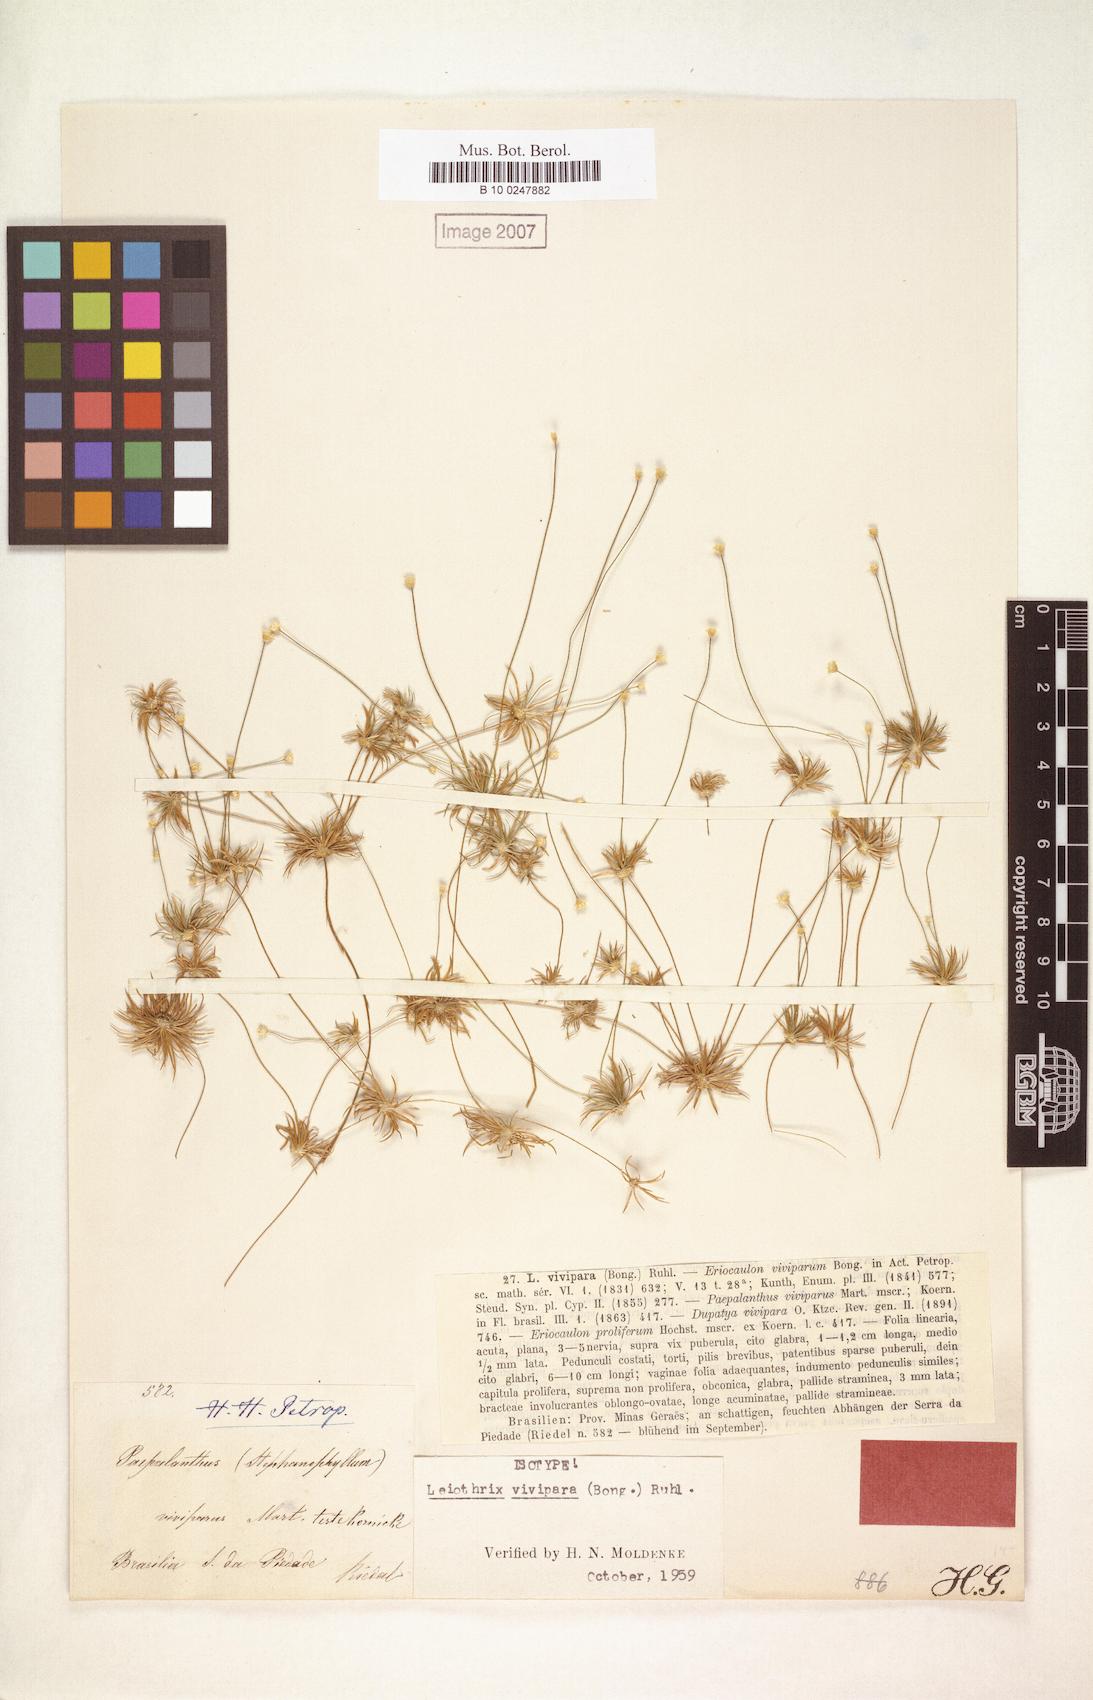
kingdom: Plantae
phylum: Tracheophyta
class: Liliopsida
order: Poales
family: Eriocaulaceae
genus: Leiothrix
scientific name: Leiothrix vivipara
